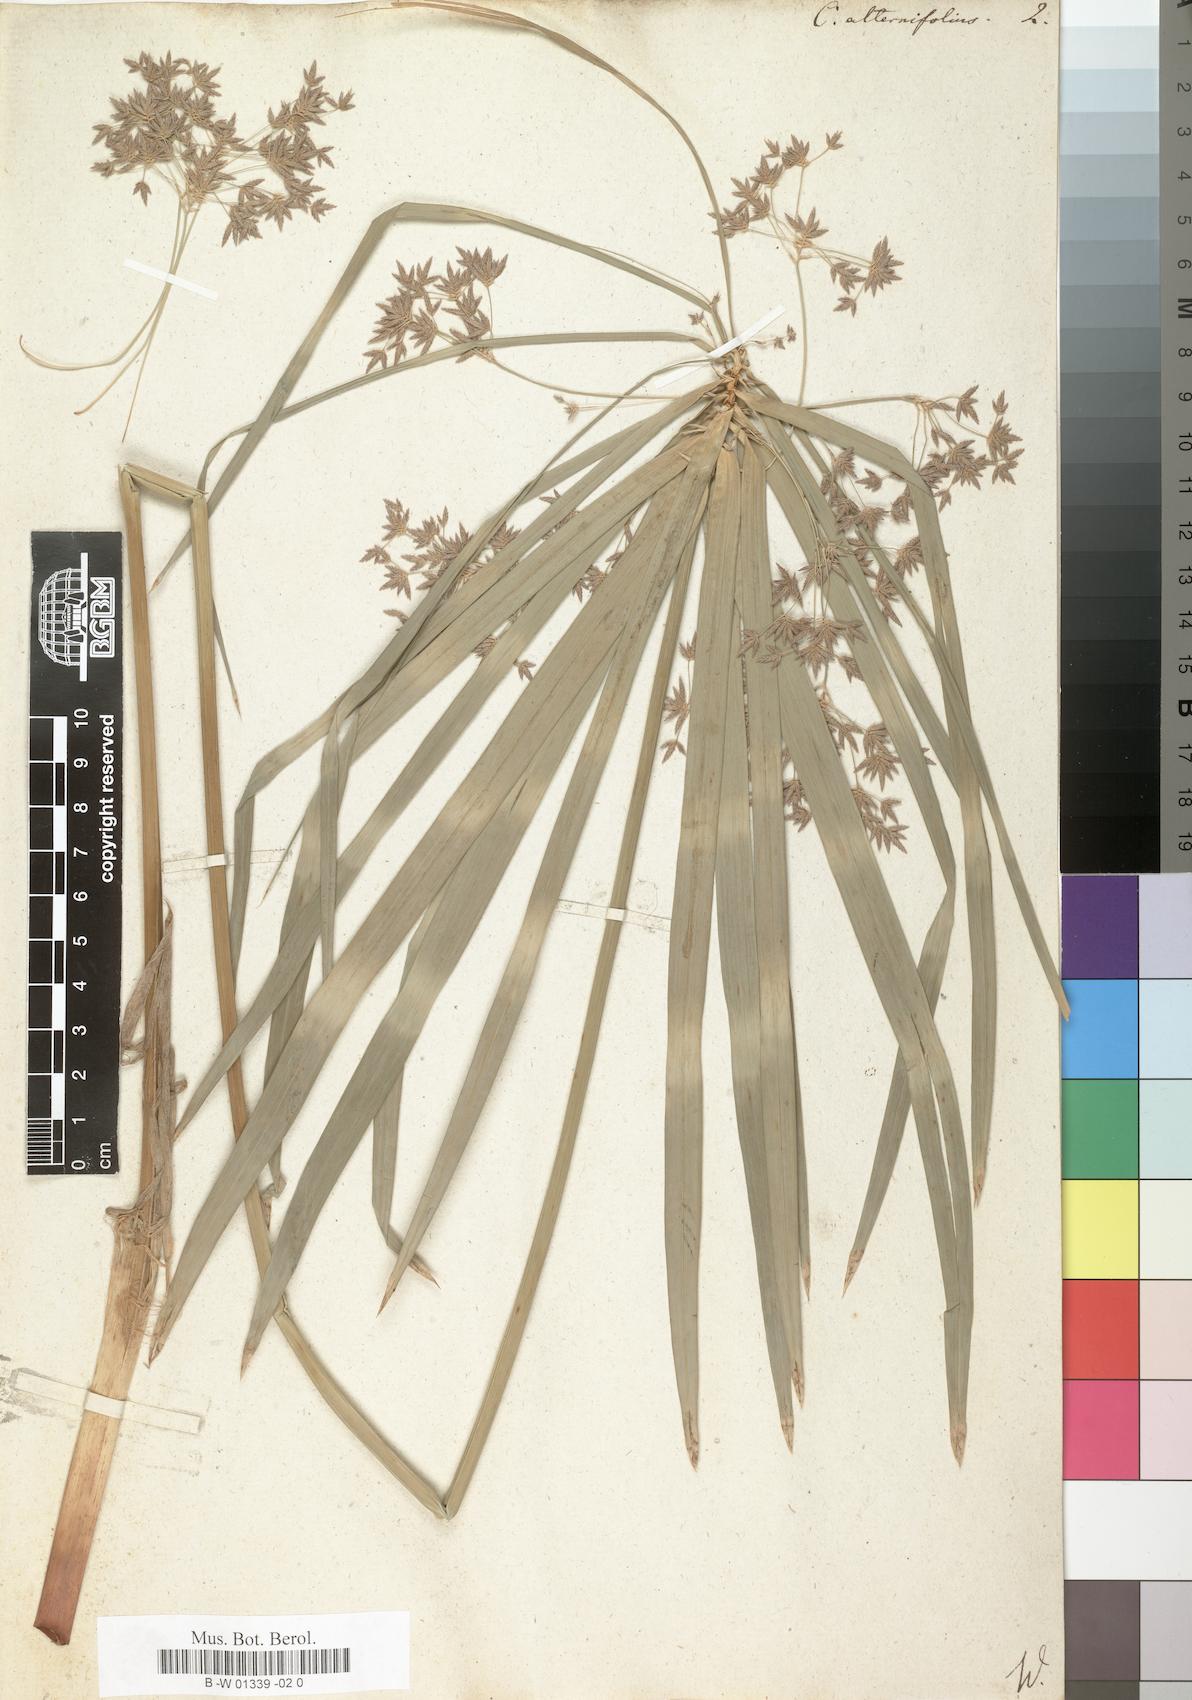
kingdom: Plantae
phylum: Tracheophyta
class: Liliopsida
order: Poales
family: Cyperaceae
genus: Cyperus
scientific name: Cyperus alternifolius
